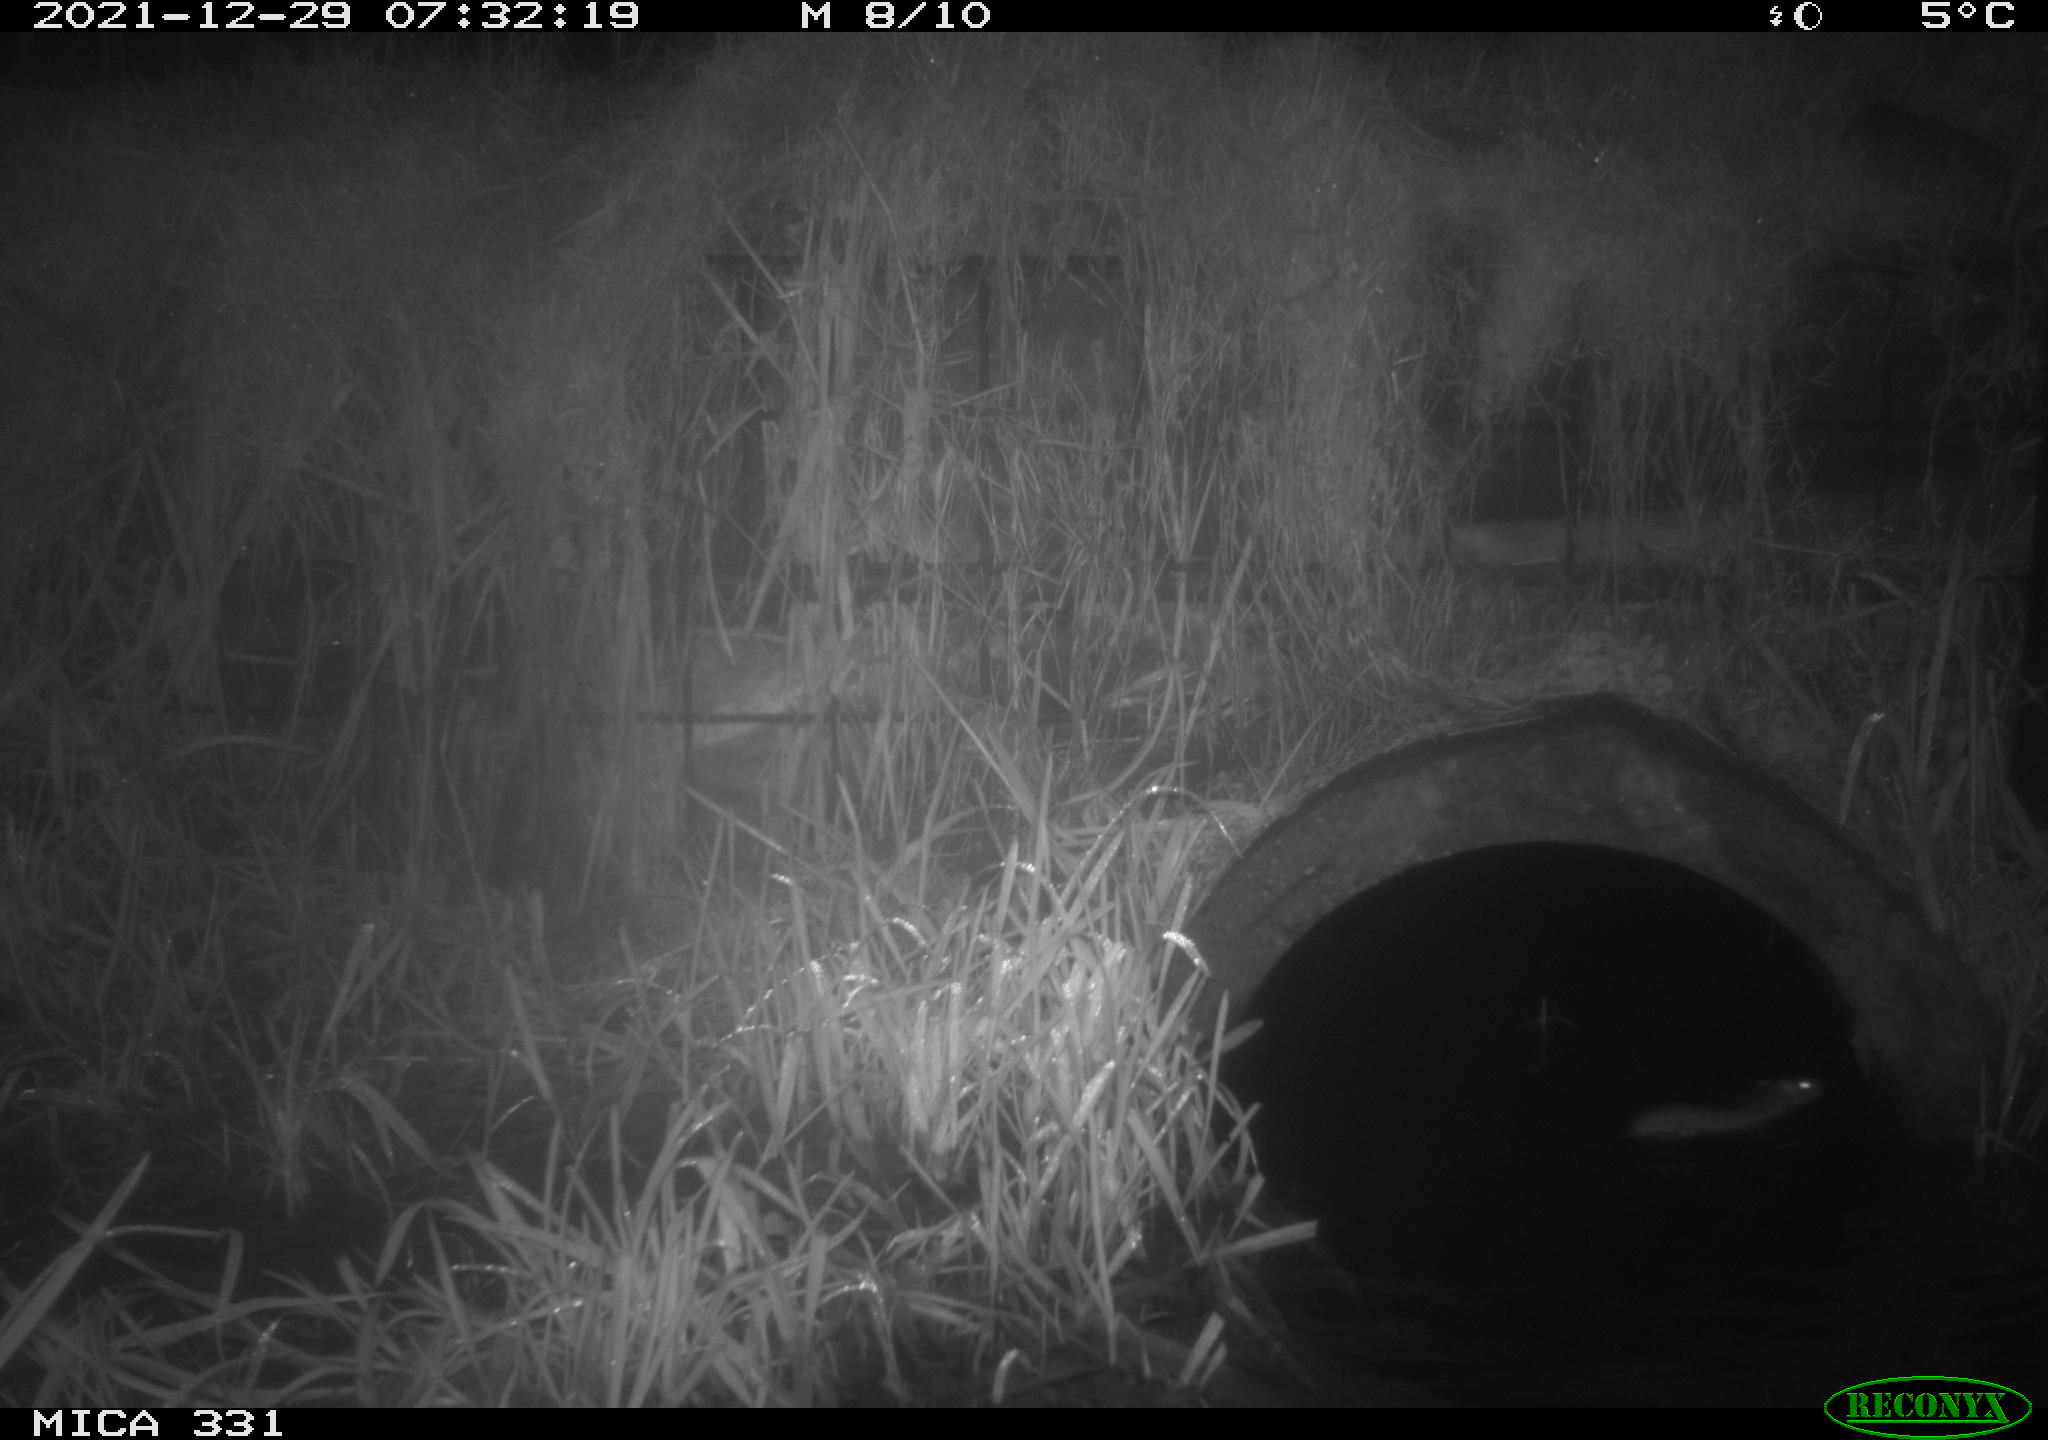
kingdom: Animalia
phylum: Chordata
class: Mammalia
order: Rodentia
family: Muridae
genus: Rattus
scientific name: Rattus norvegicus
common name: Brown rat
